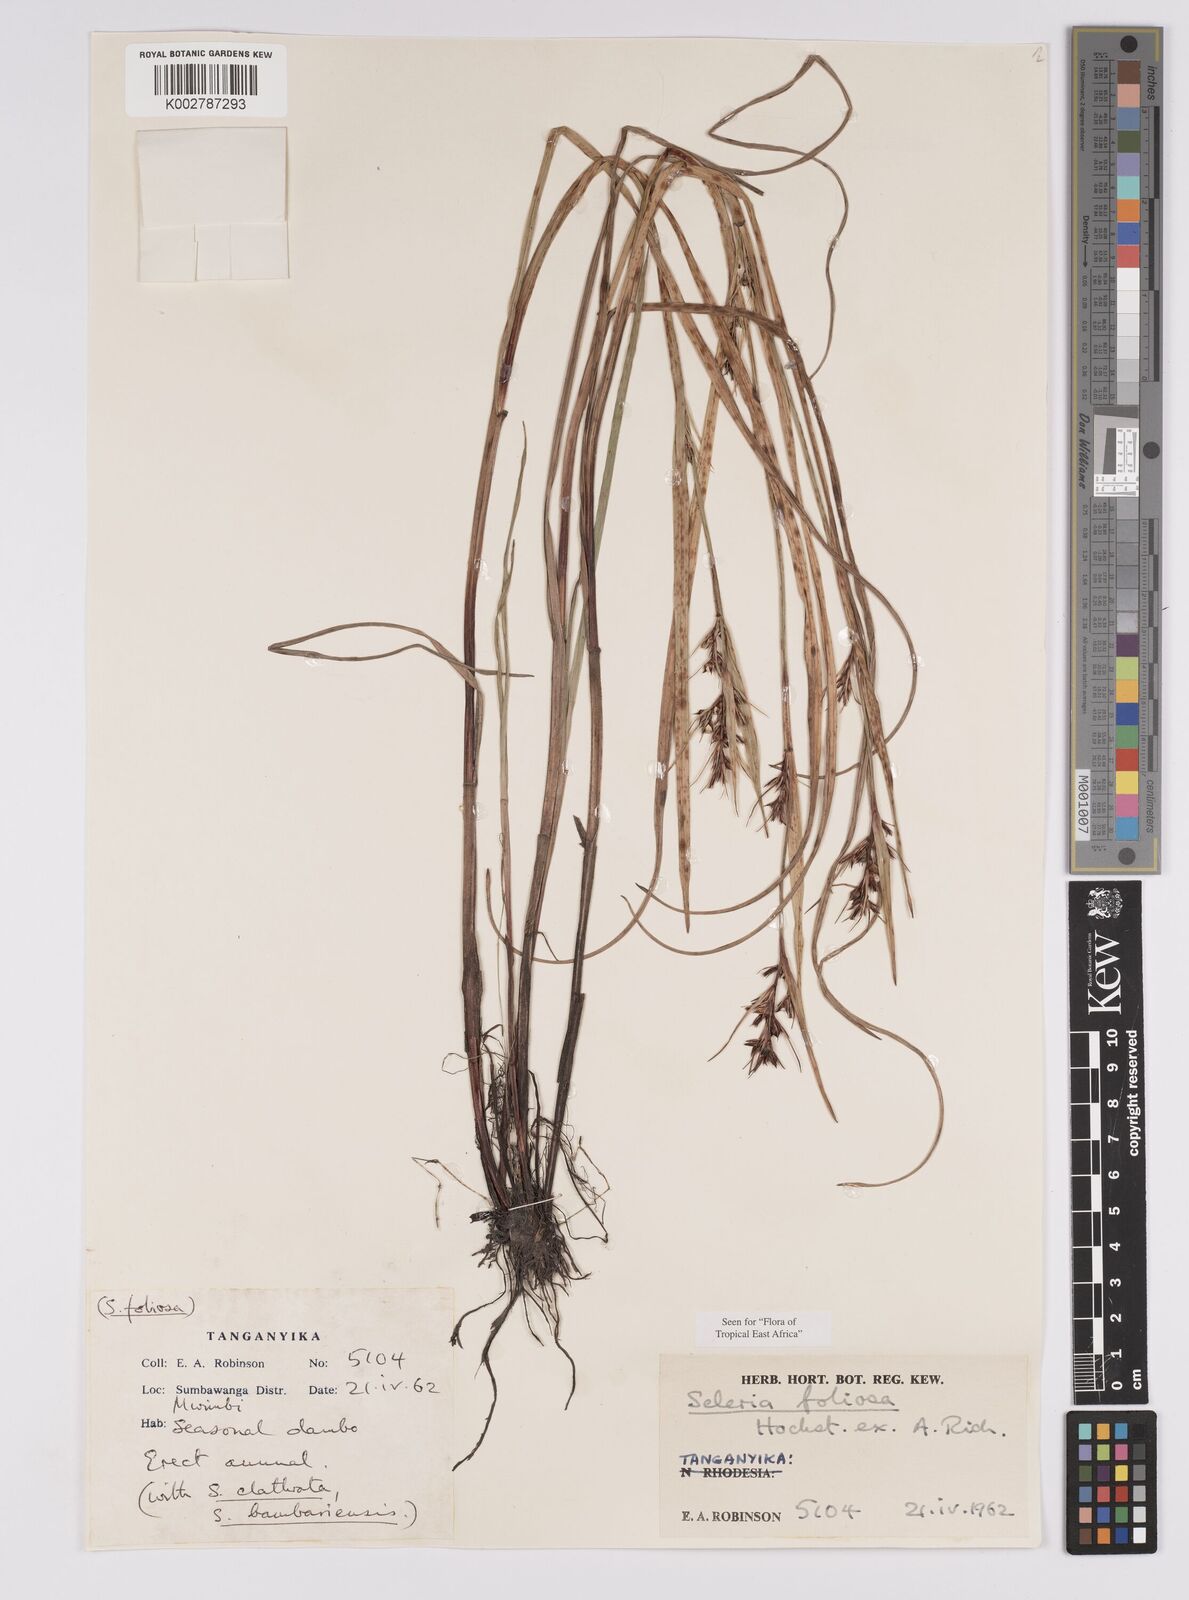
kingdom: Plantae
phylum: Tracheophyta
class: Liliopsida
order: Poales
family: Cyperaceae
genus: Scleria
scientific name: Scleria foliosa
